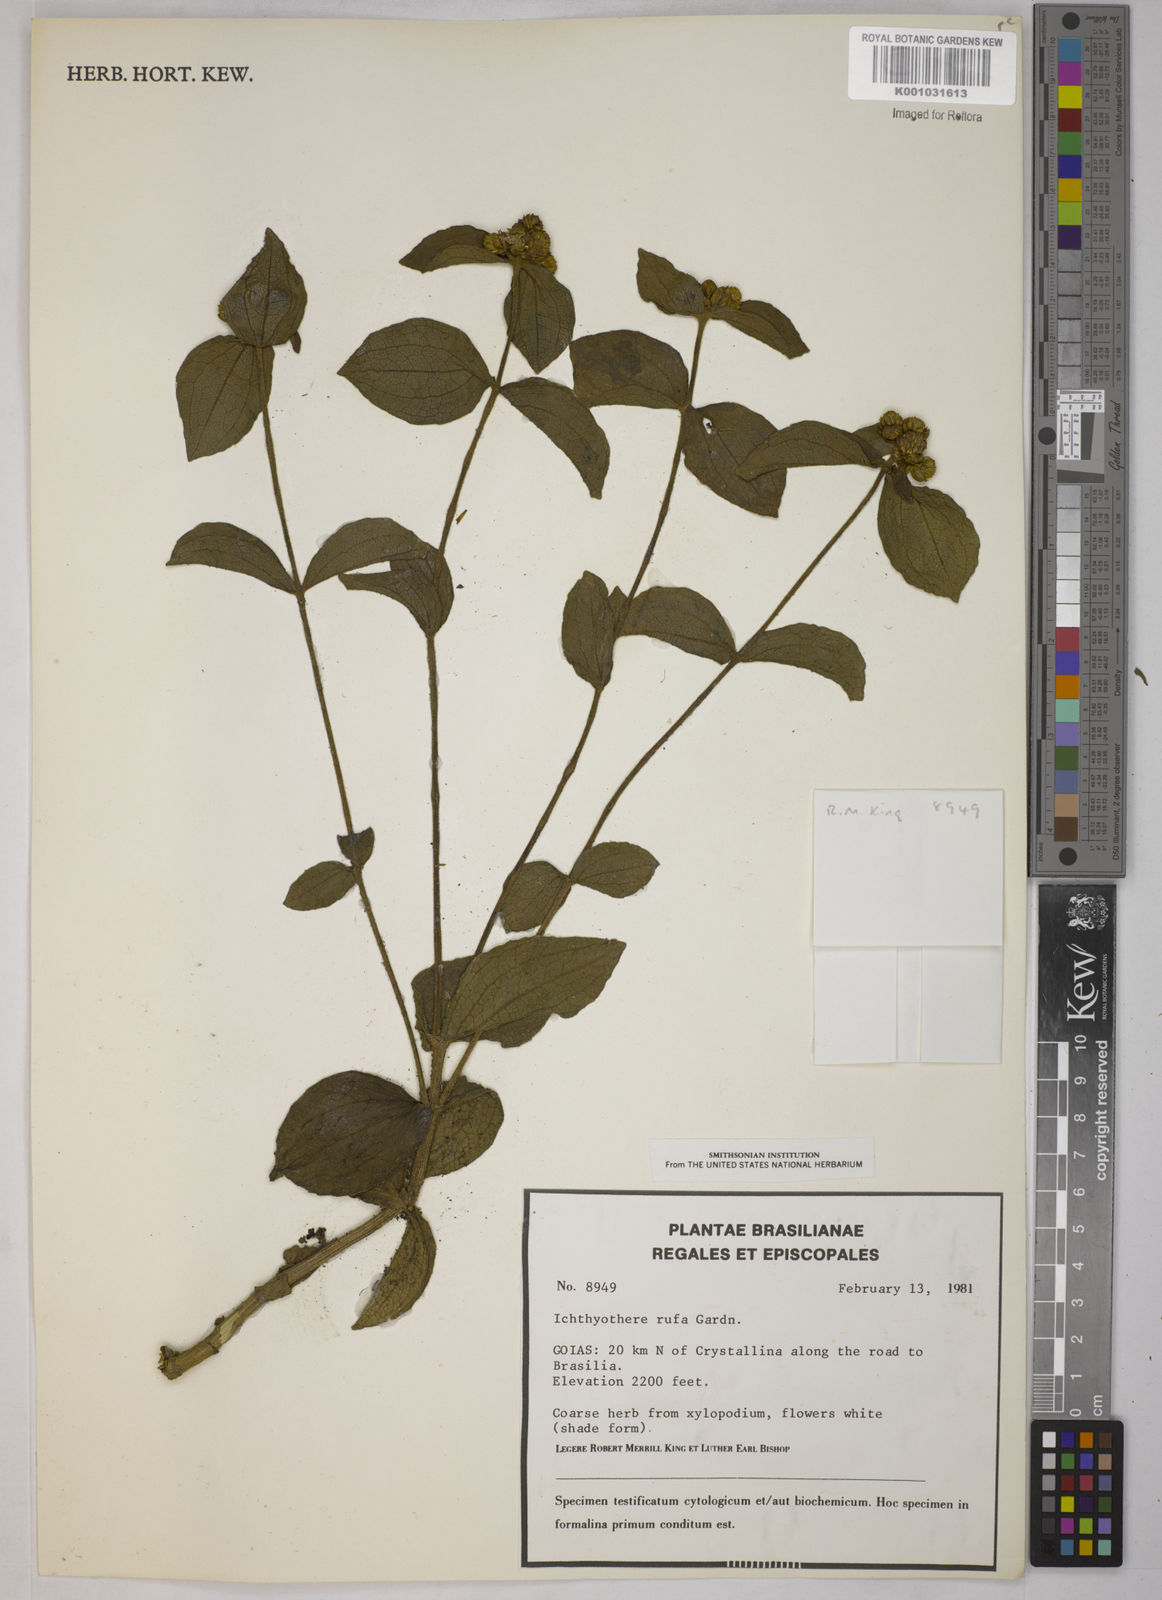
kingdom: Plantae
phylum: Tracheophyta
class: Magnoliopsida
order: Asterales
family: Asteraceae
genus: Ichthyothere
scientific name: Ichthyothere rufa
